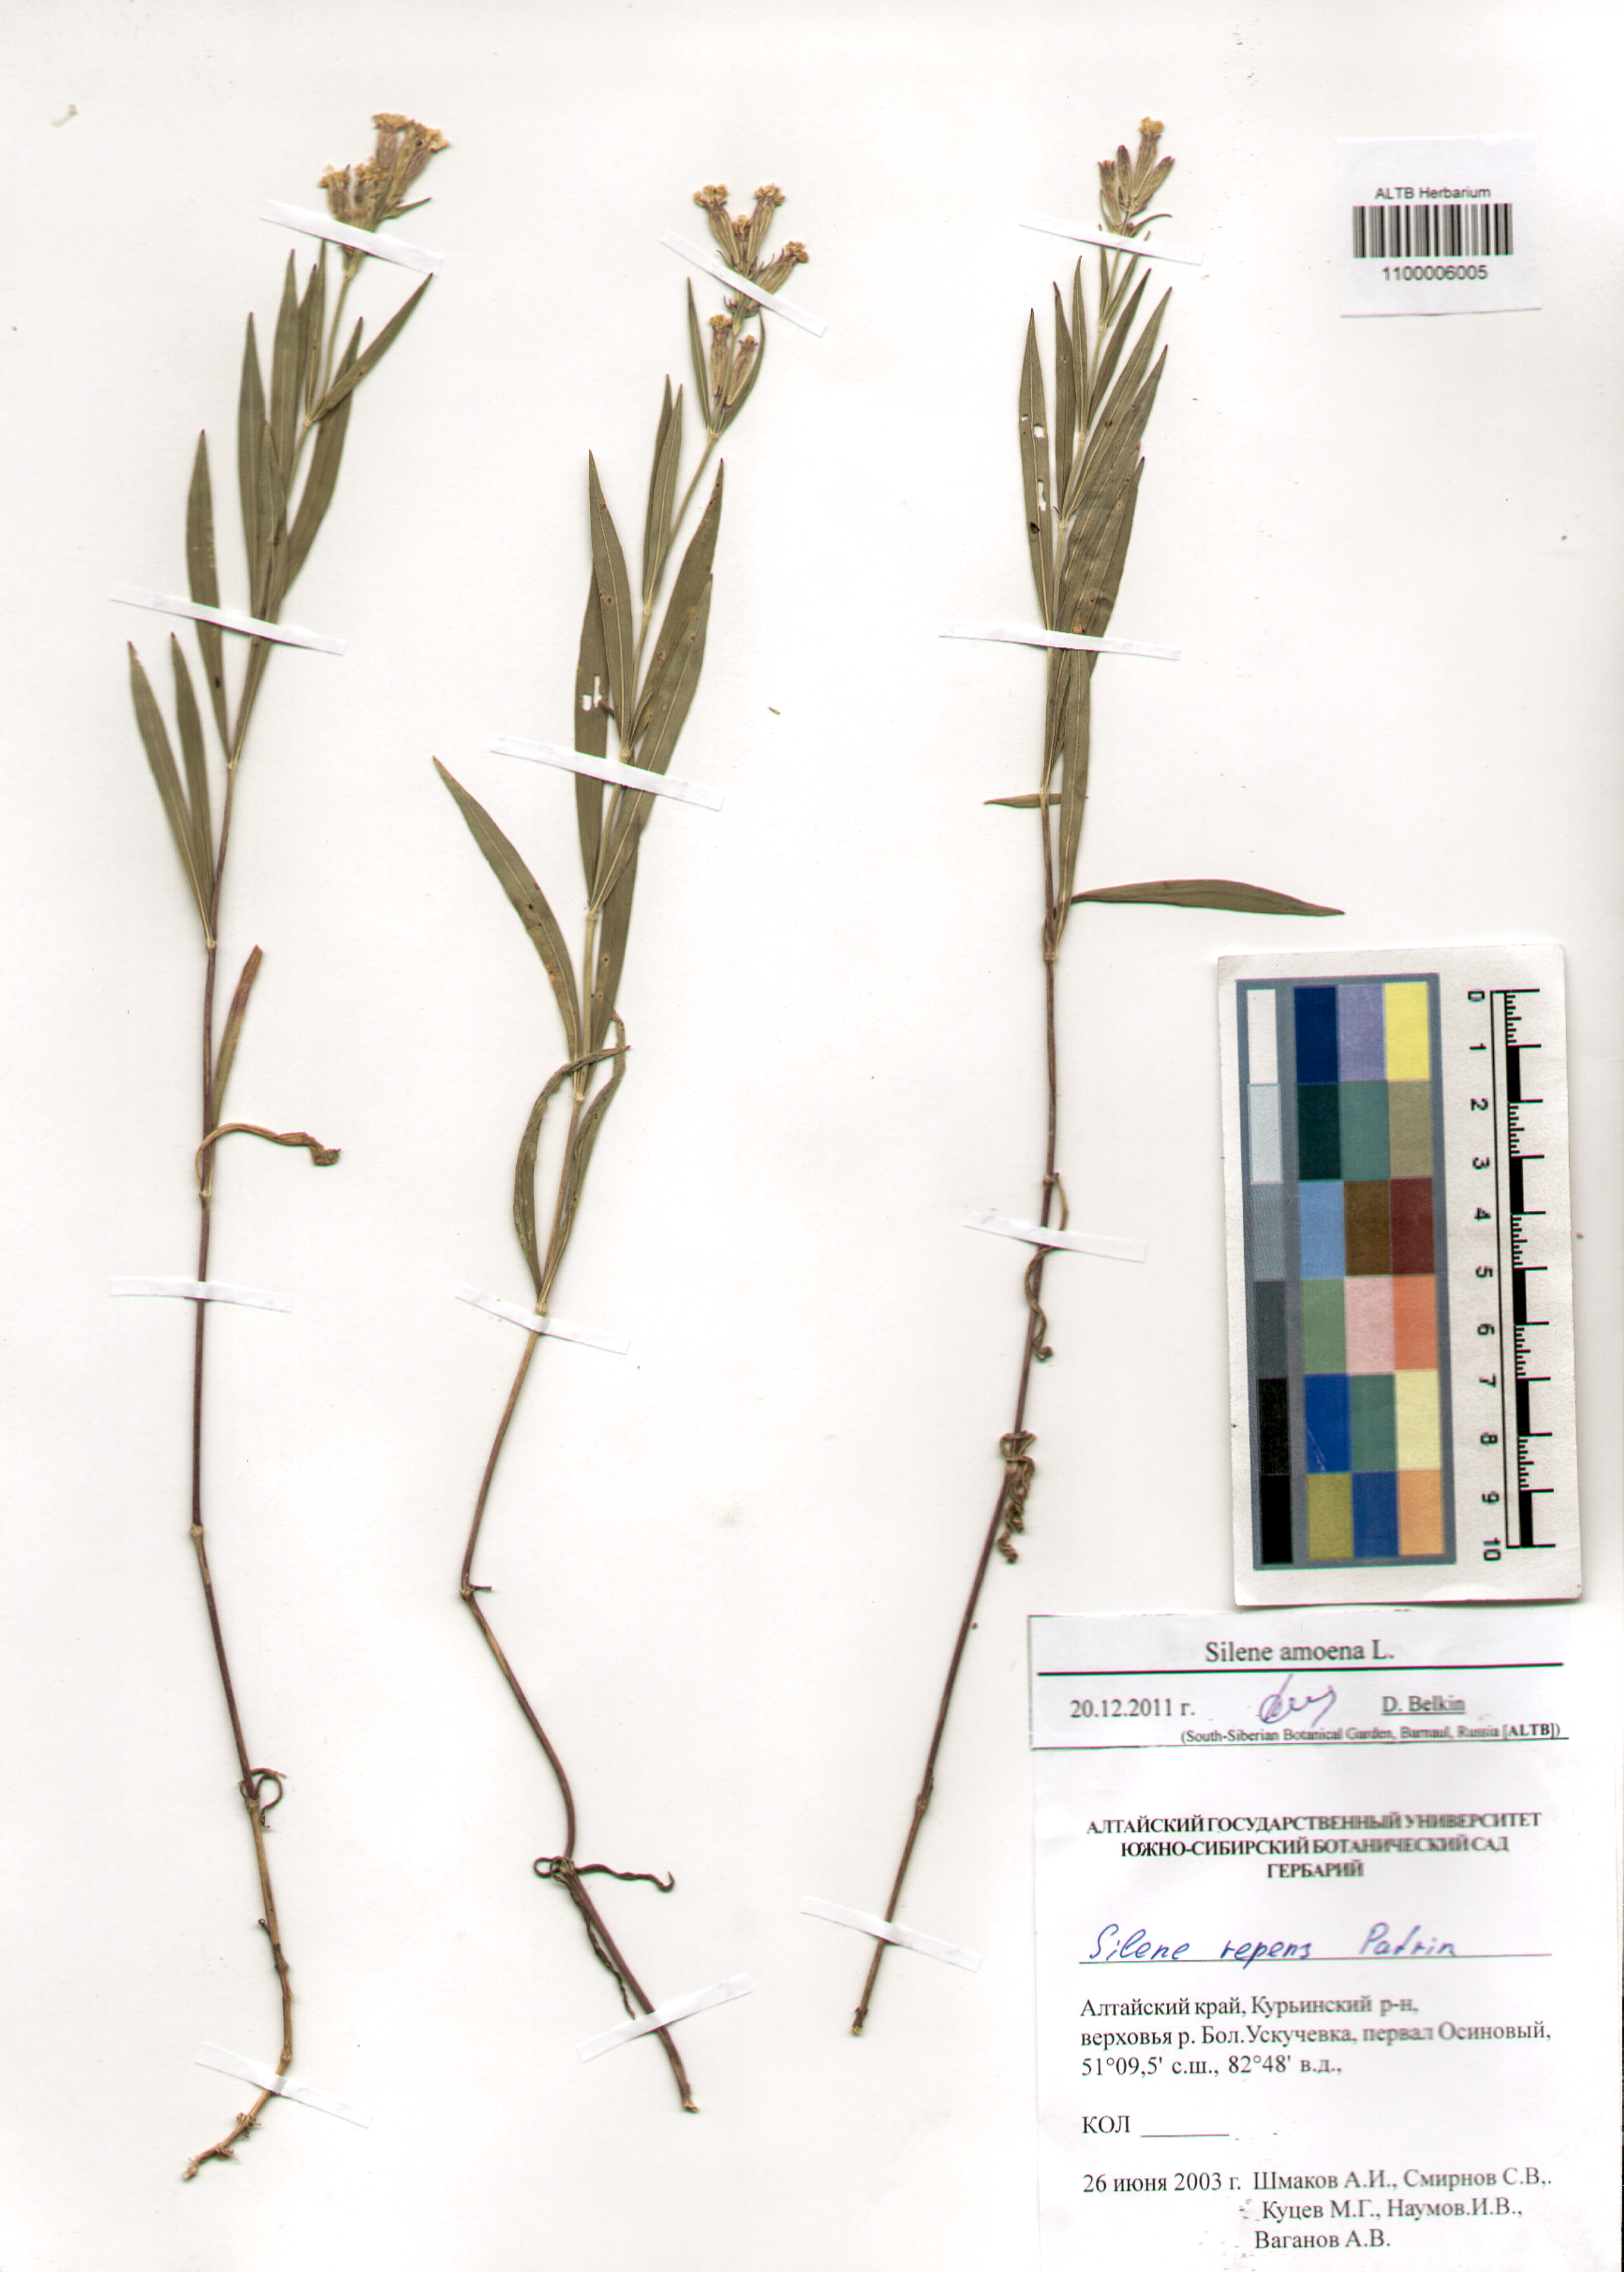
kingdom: Plantae
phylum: Tracheophyta
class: Magnoliopsida
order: Caryophyllales
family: Caryophyllaceae
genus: Silene
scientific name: Silene amoena
